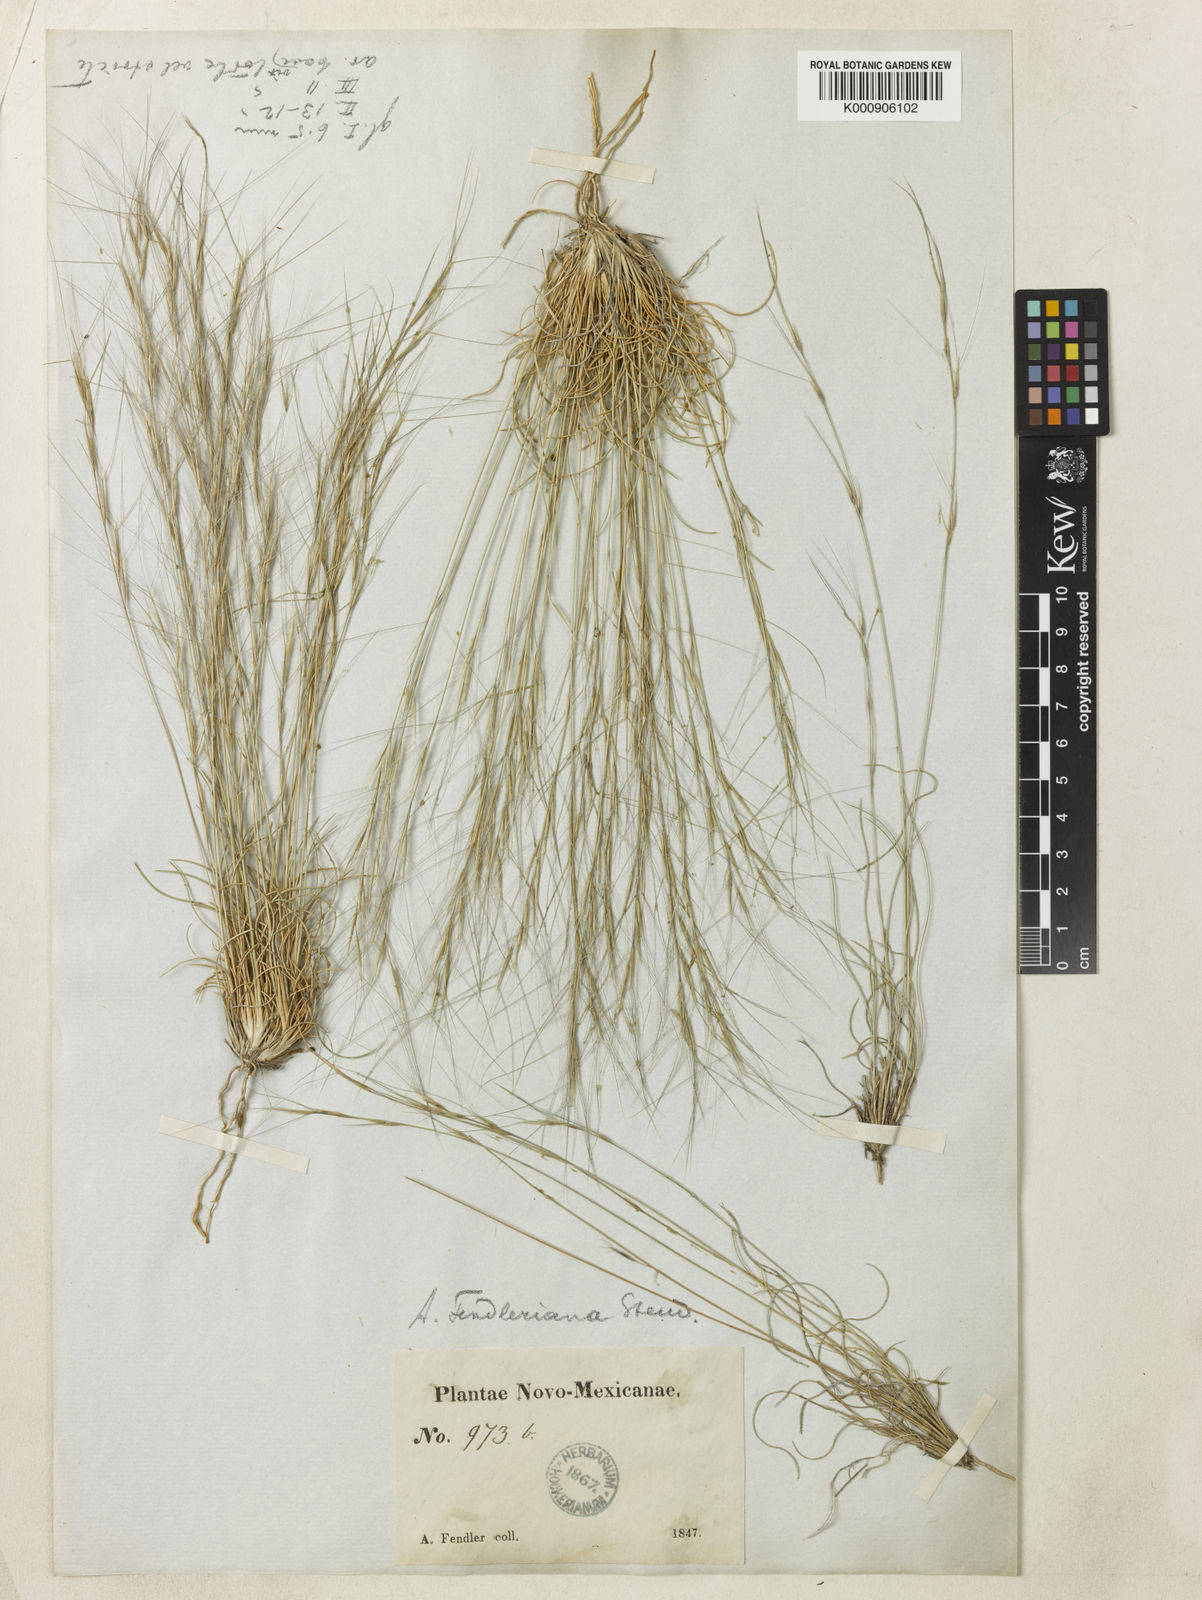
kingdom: Plantae
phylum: Tracheophyta
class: Liliopsida
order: Poales
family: Poaceae
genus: Aristida
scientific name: Aristida fendleriana
